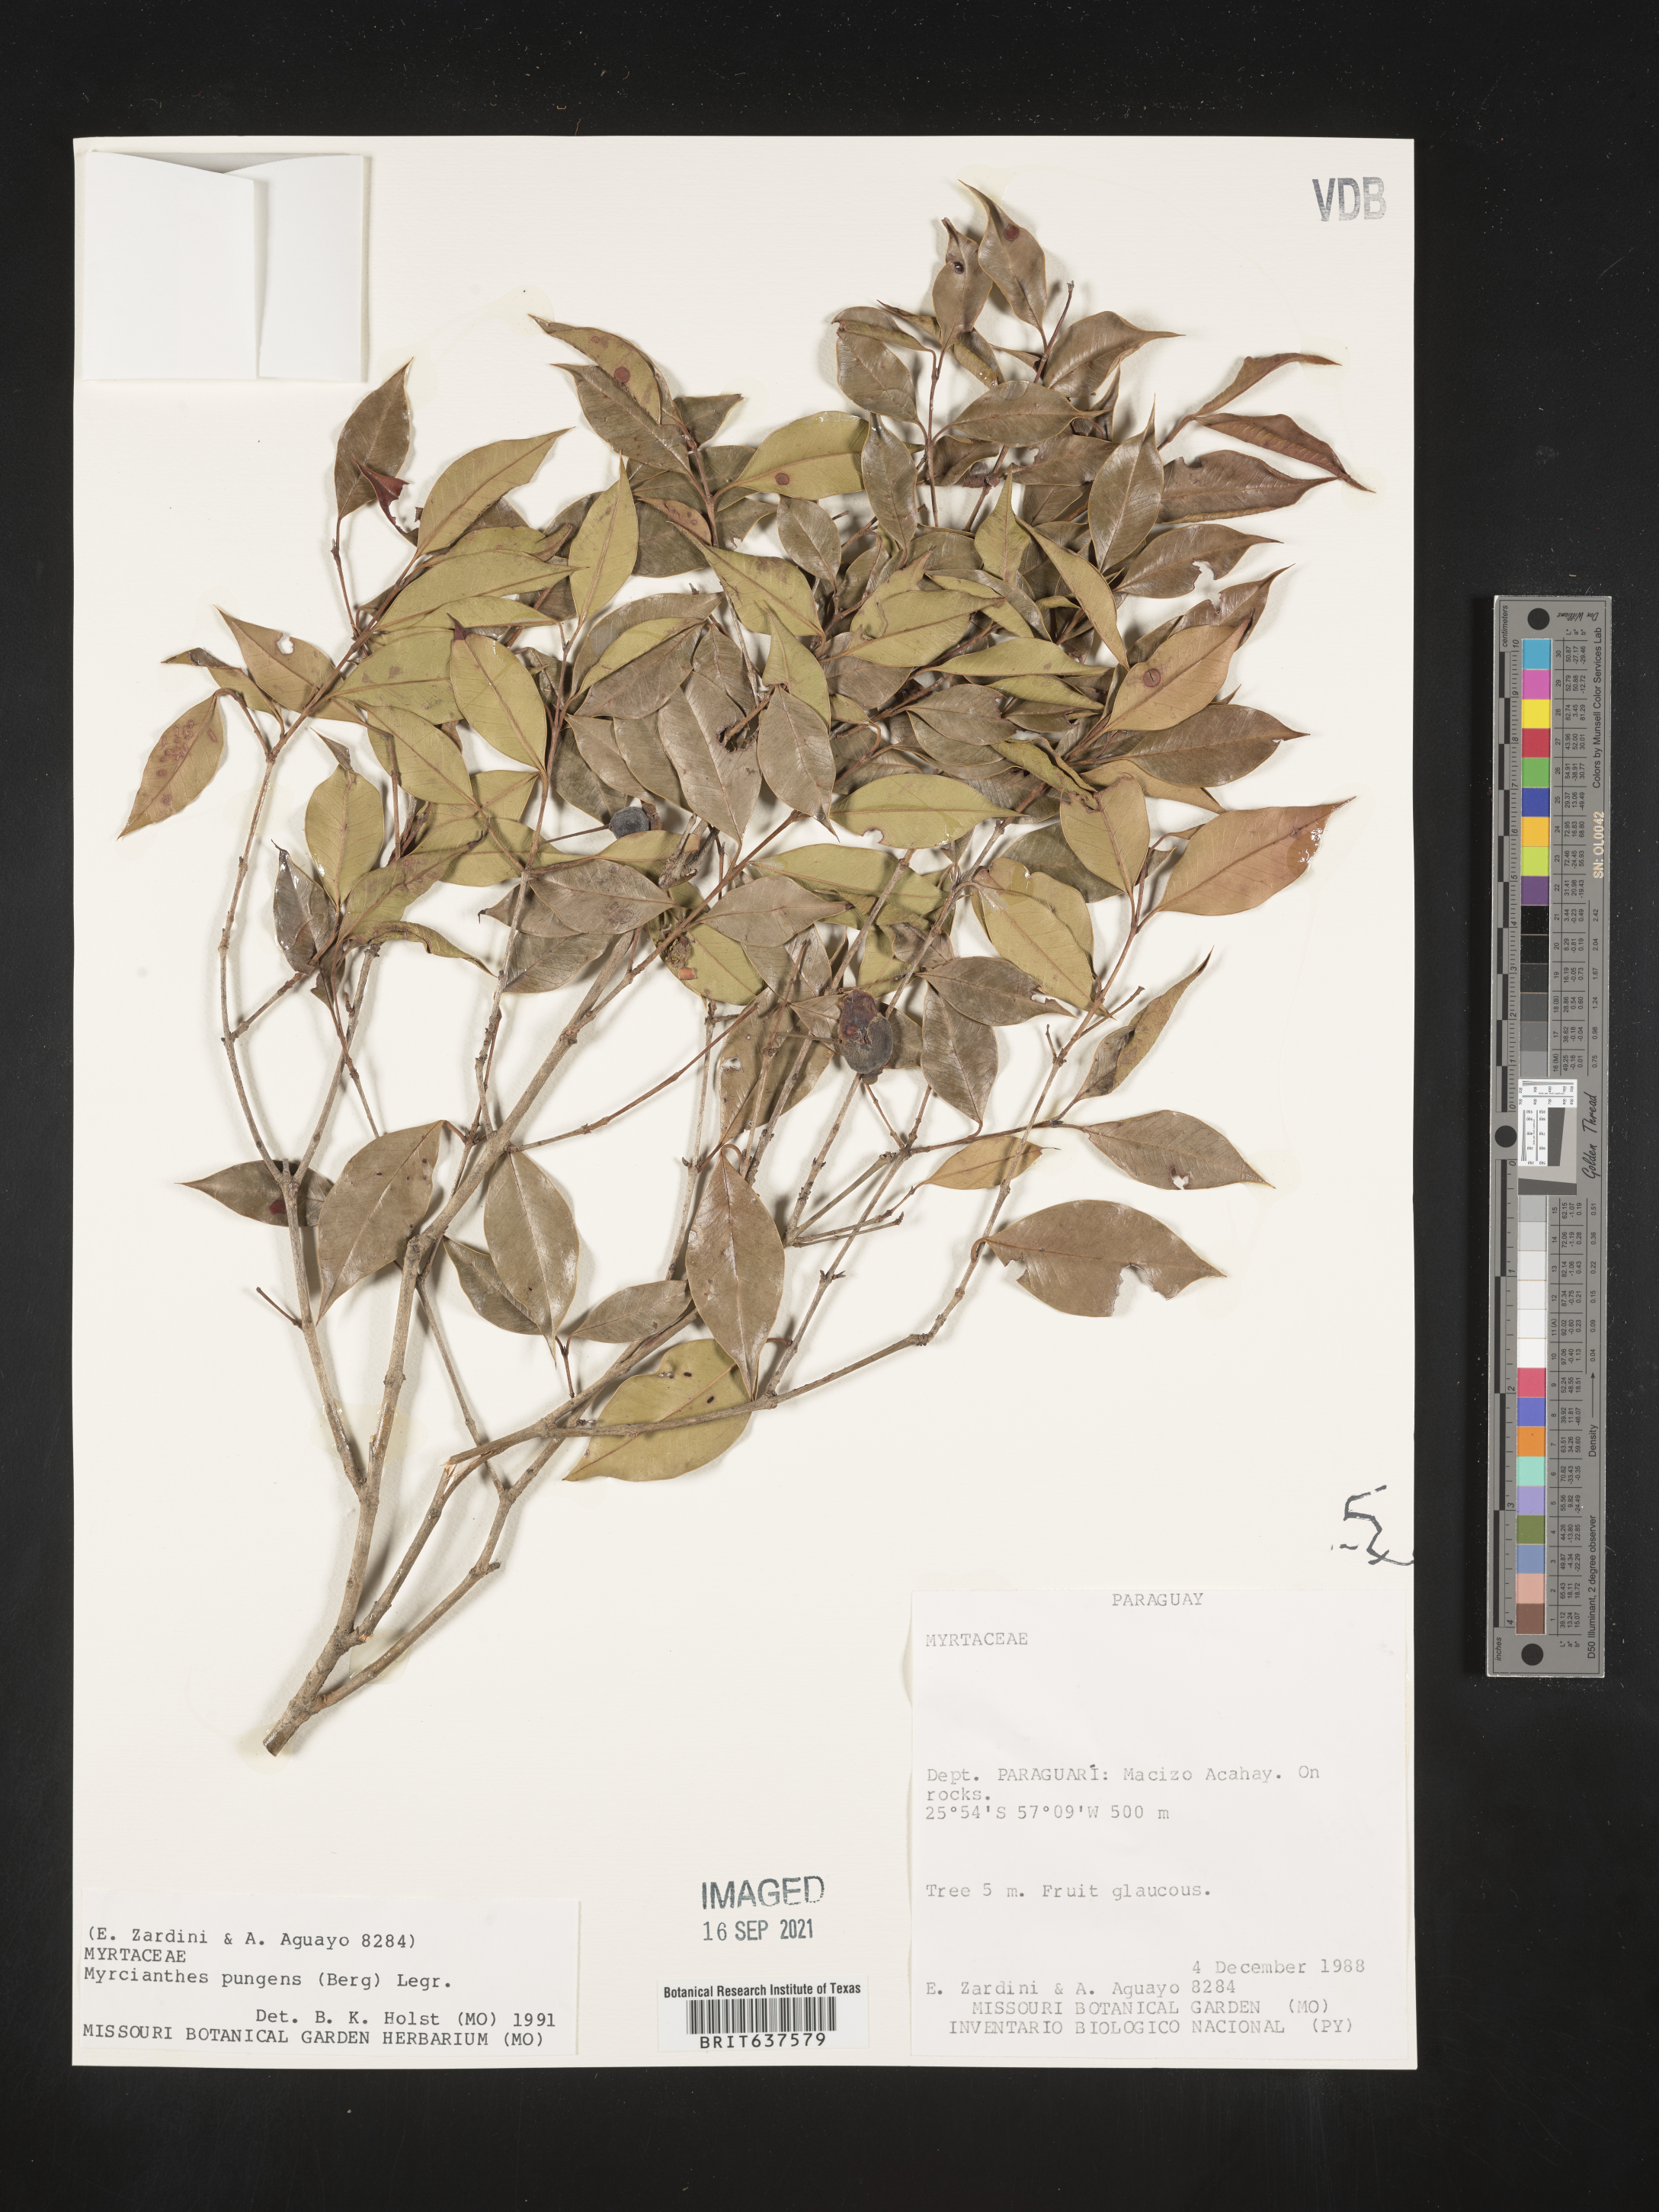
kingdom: Plantae
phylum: Tracheophyta
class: Magnoliopsida
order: Myrtales
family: Myrtaceae
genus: Myrcianthes
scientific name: Myrcianthes
